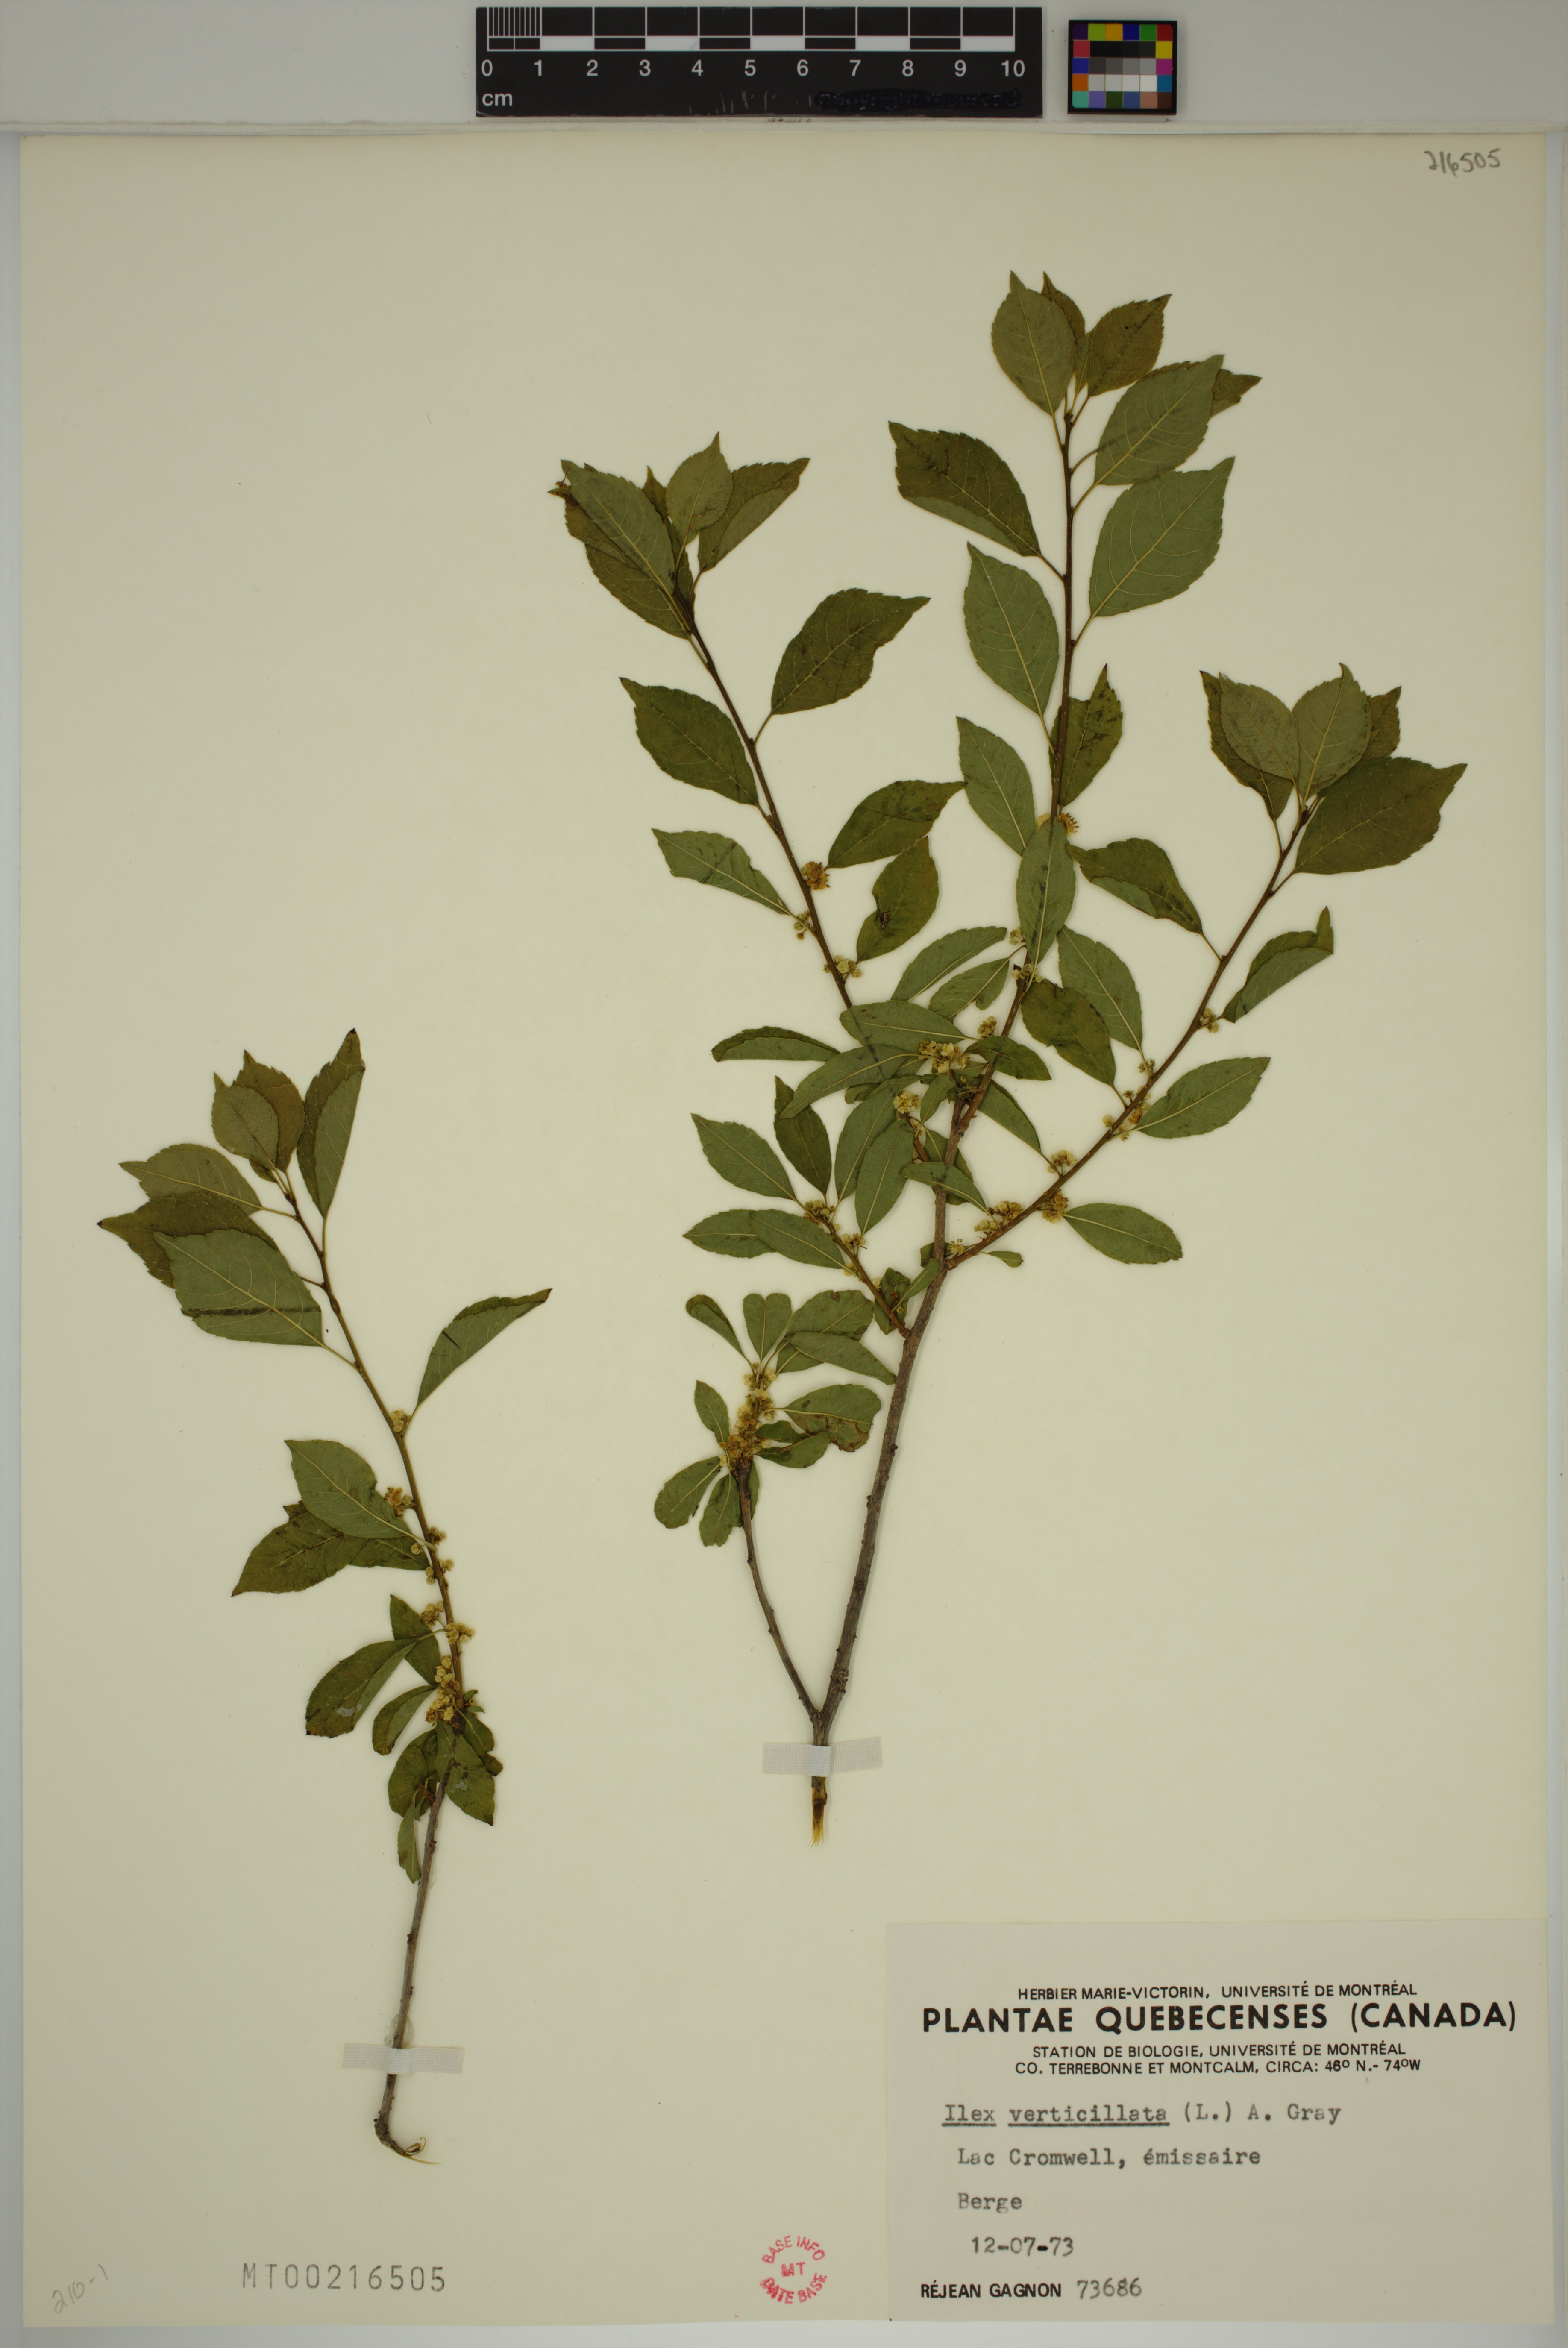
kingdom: Plantae
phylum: Tracheophyta
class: Magnoliopsida
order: Aquifoliales
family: Aquifoliaceae
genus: Ilex
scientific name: Ilex verticillata
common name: Virginia winterberry
